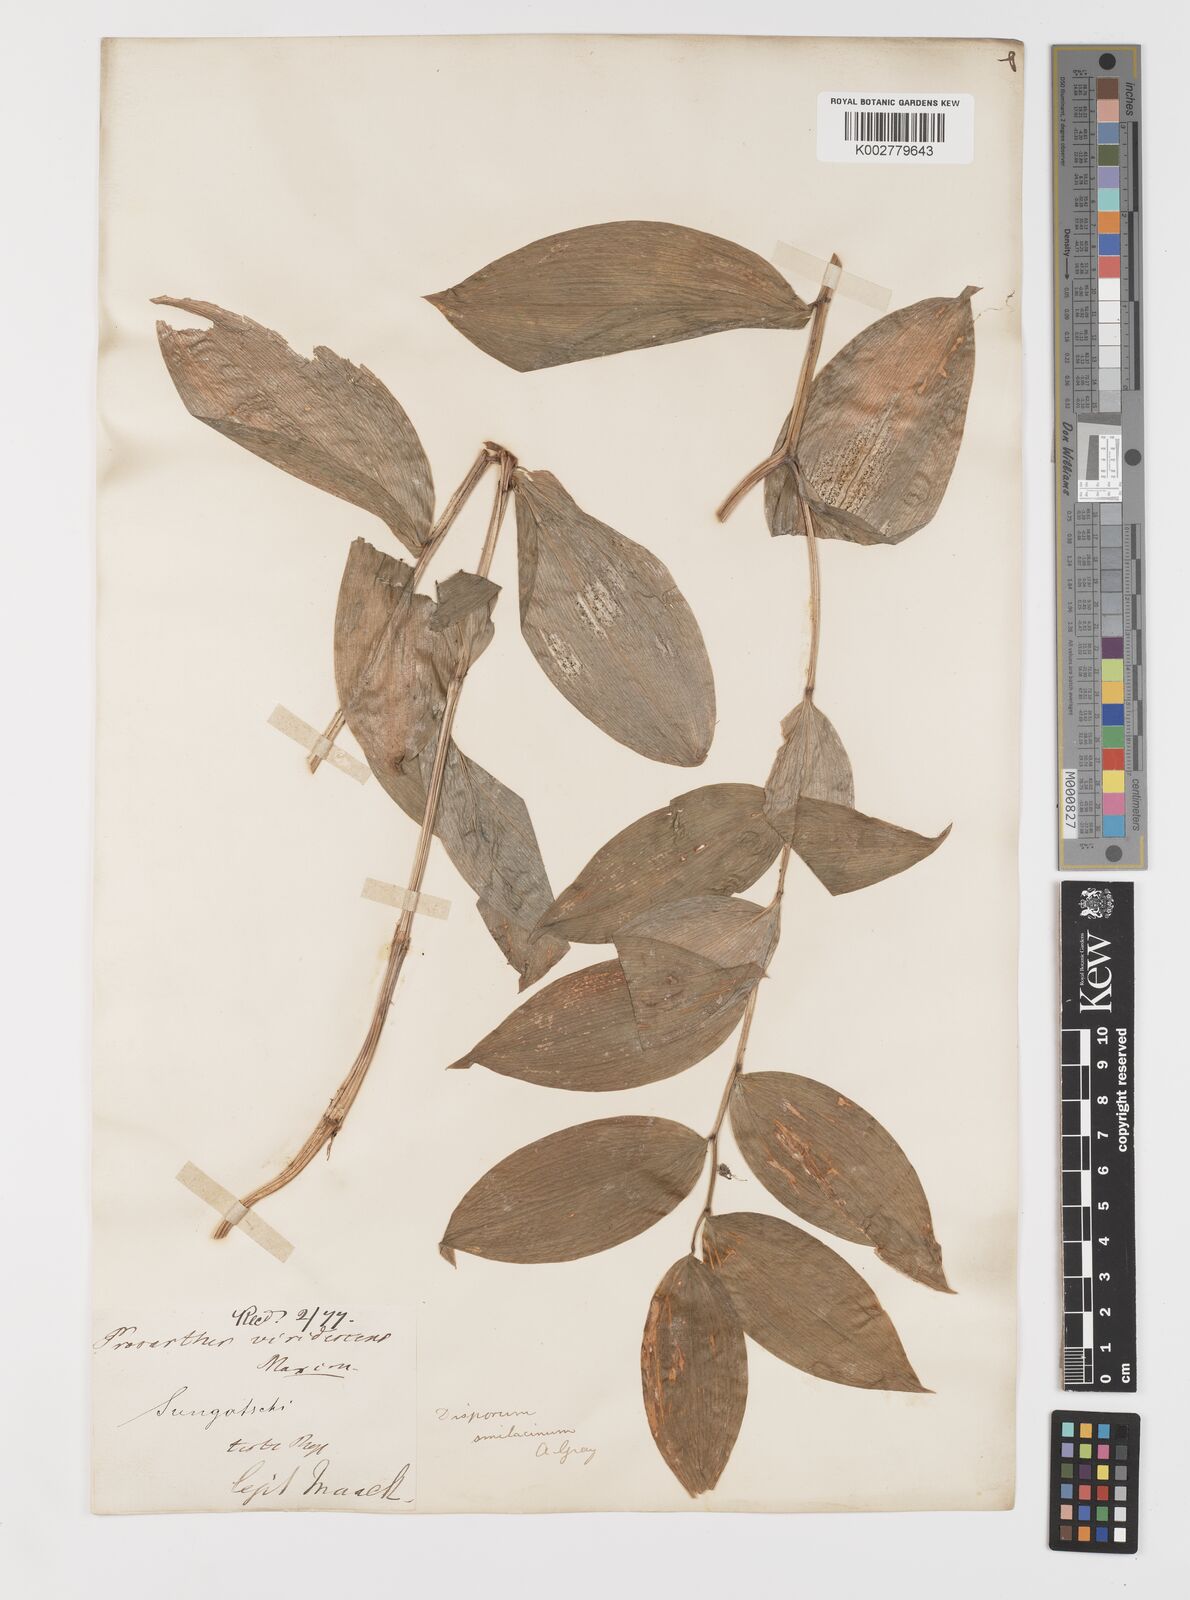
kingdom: Plantae
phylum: Tracheophyta
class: Liliopsida
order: Liliales
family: Colchicaceae
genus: Disporum
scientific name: Disporum viridescens
